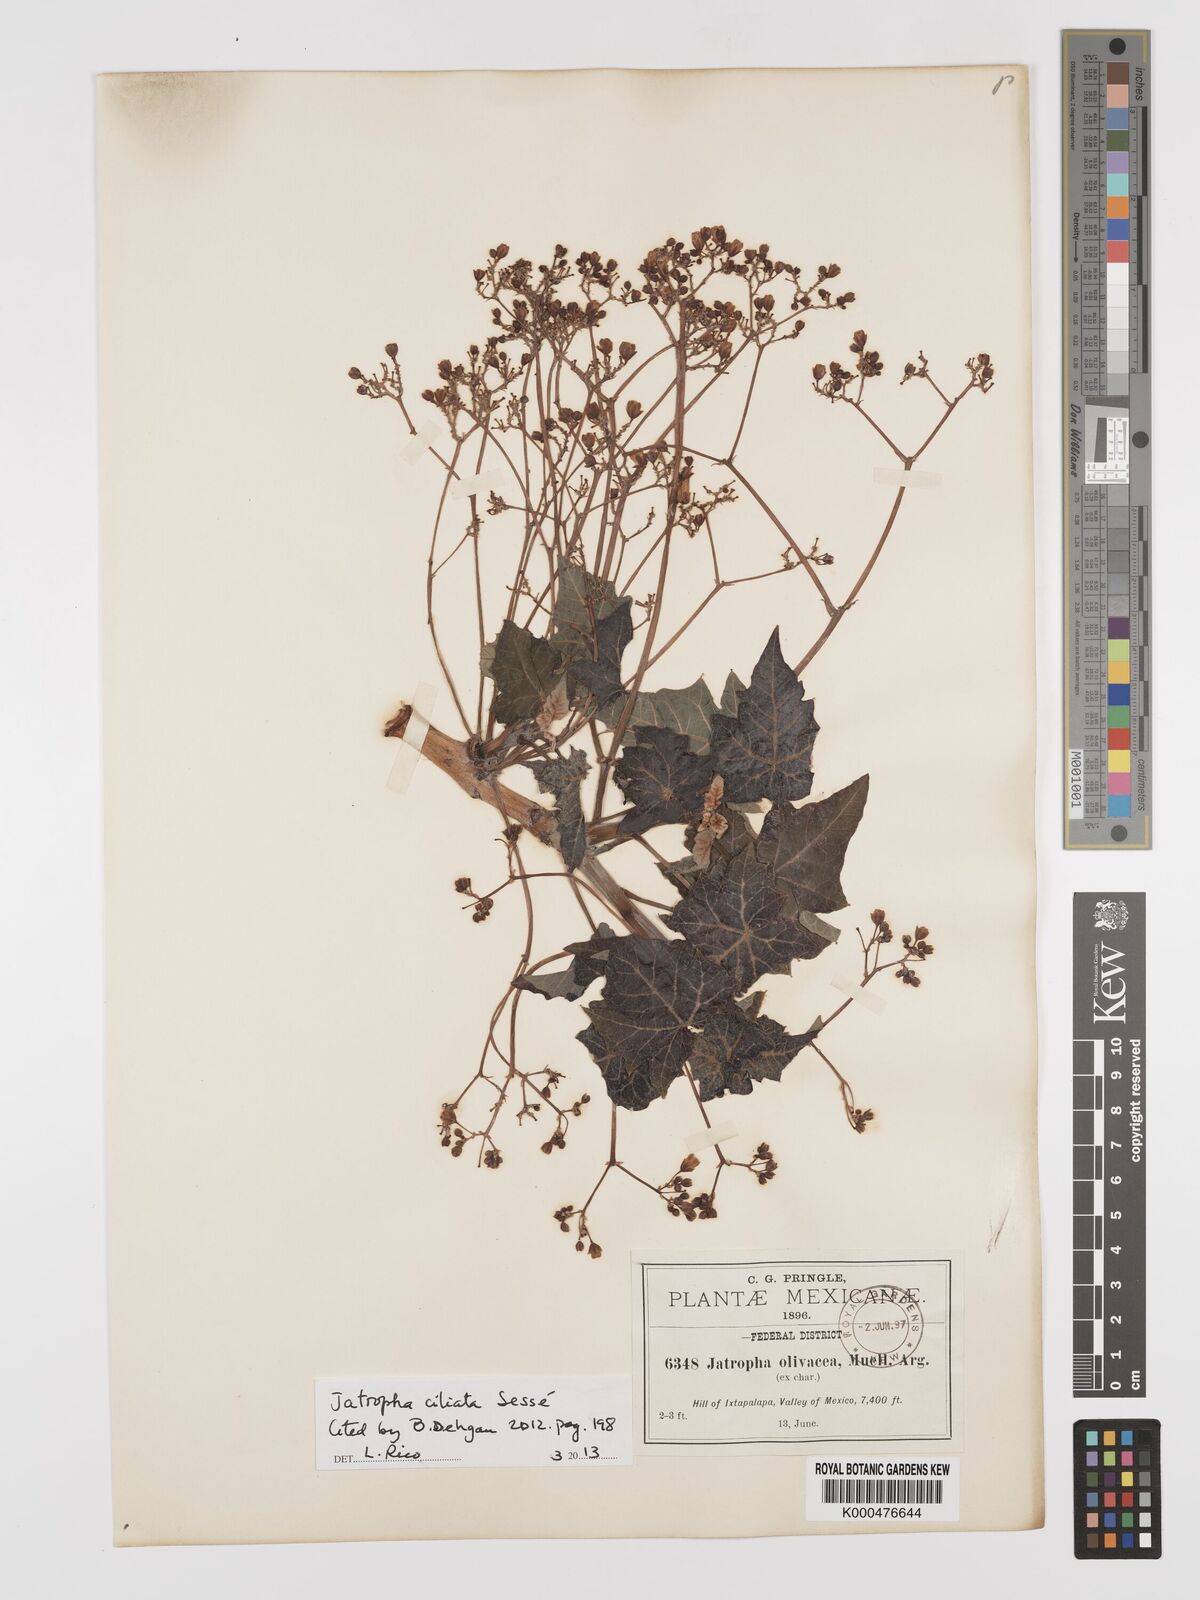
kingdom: Plantae
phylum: Tracheophyta
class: Magnoliopsida
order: Malpighiales
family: Euphorbiaceae
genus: Jatropha
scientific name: Jatropha
